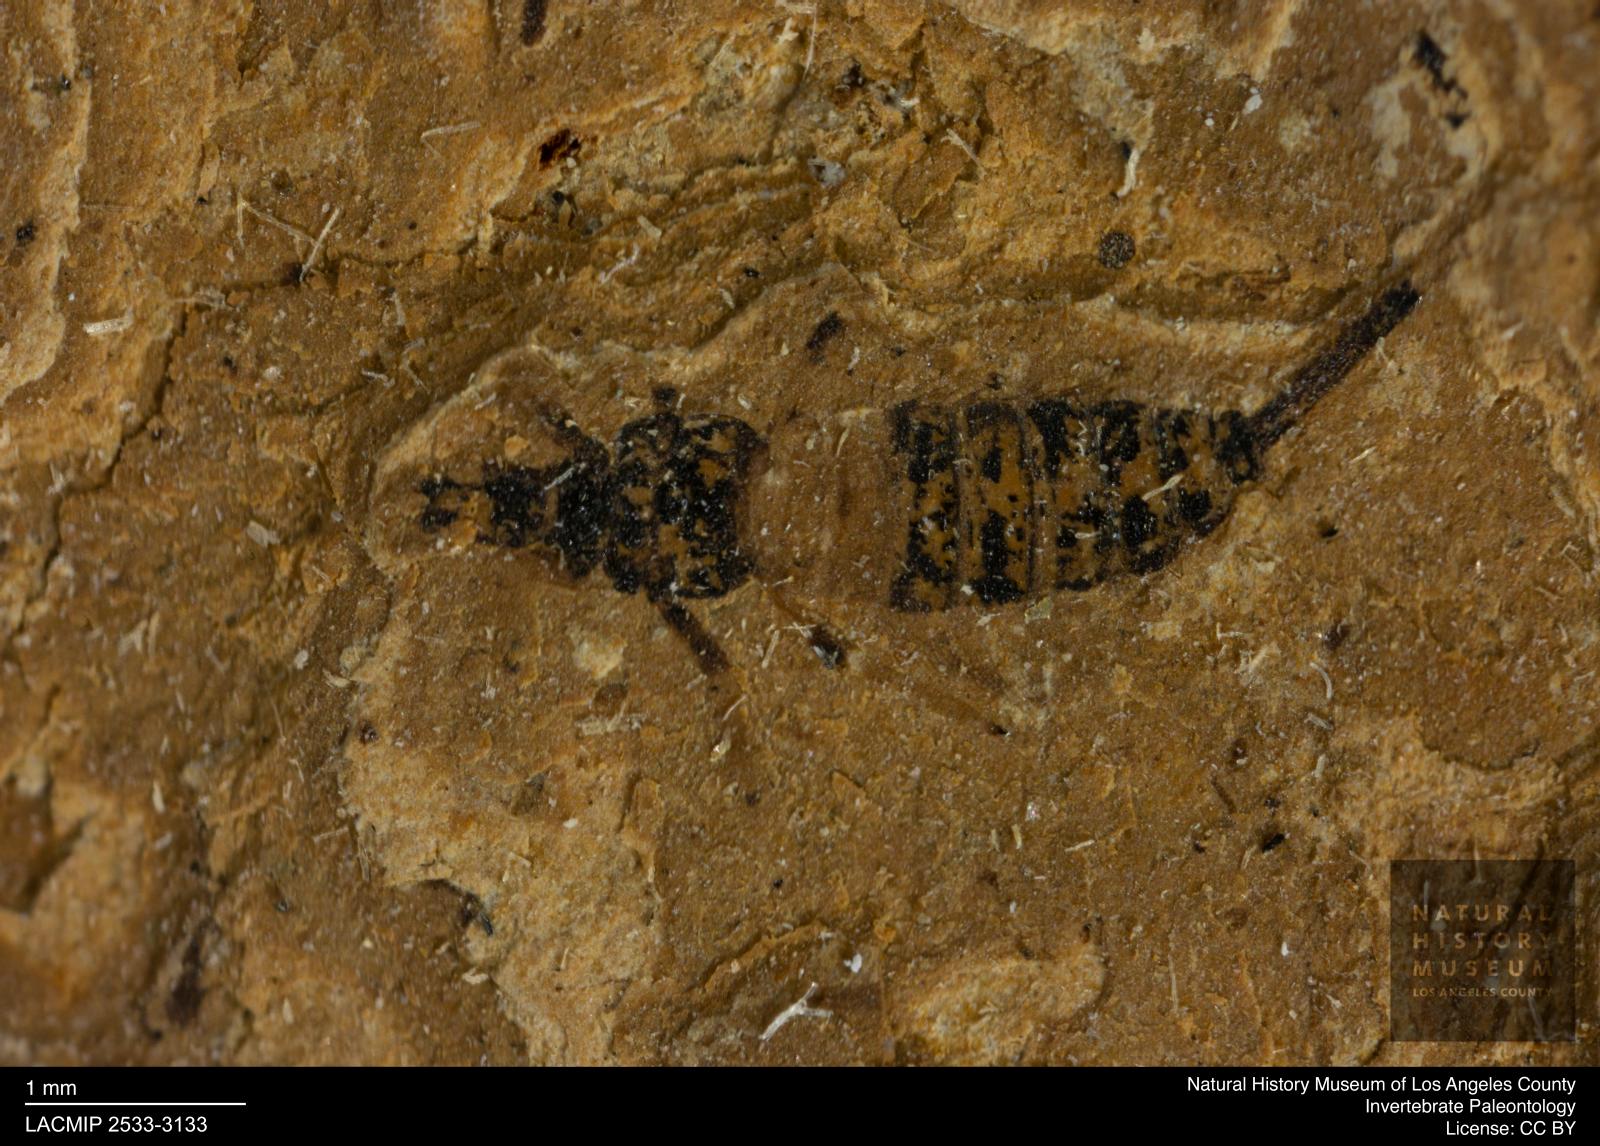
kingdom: Animalia
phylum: Arthropoda
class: Insecta
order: Thysanoptera
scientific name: Thysanoptera
